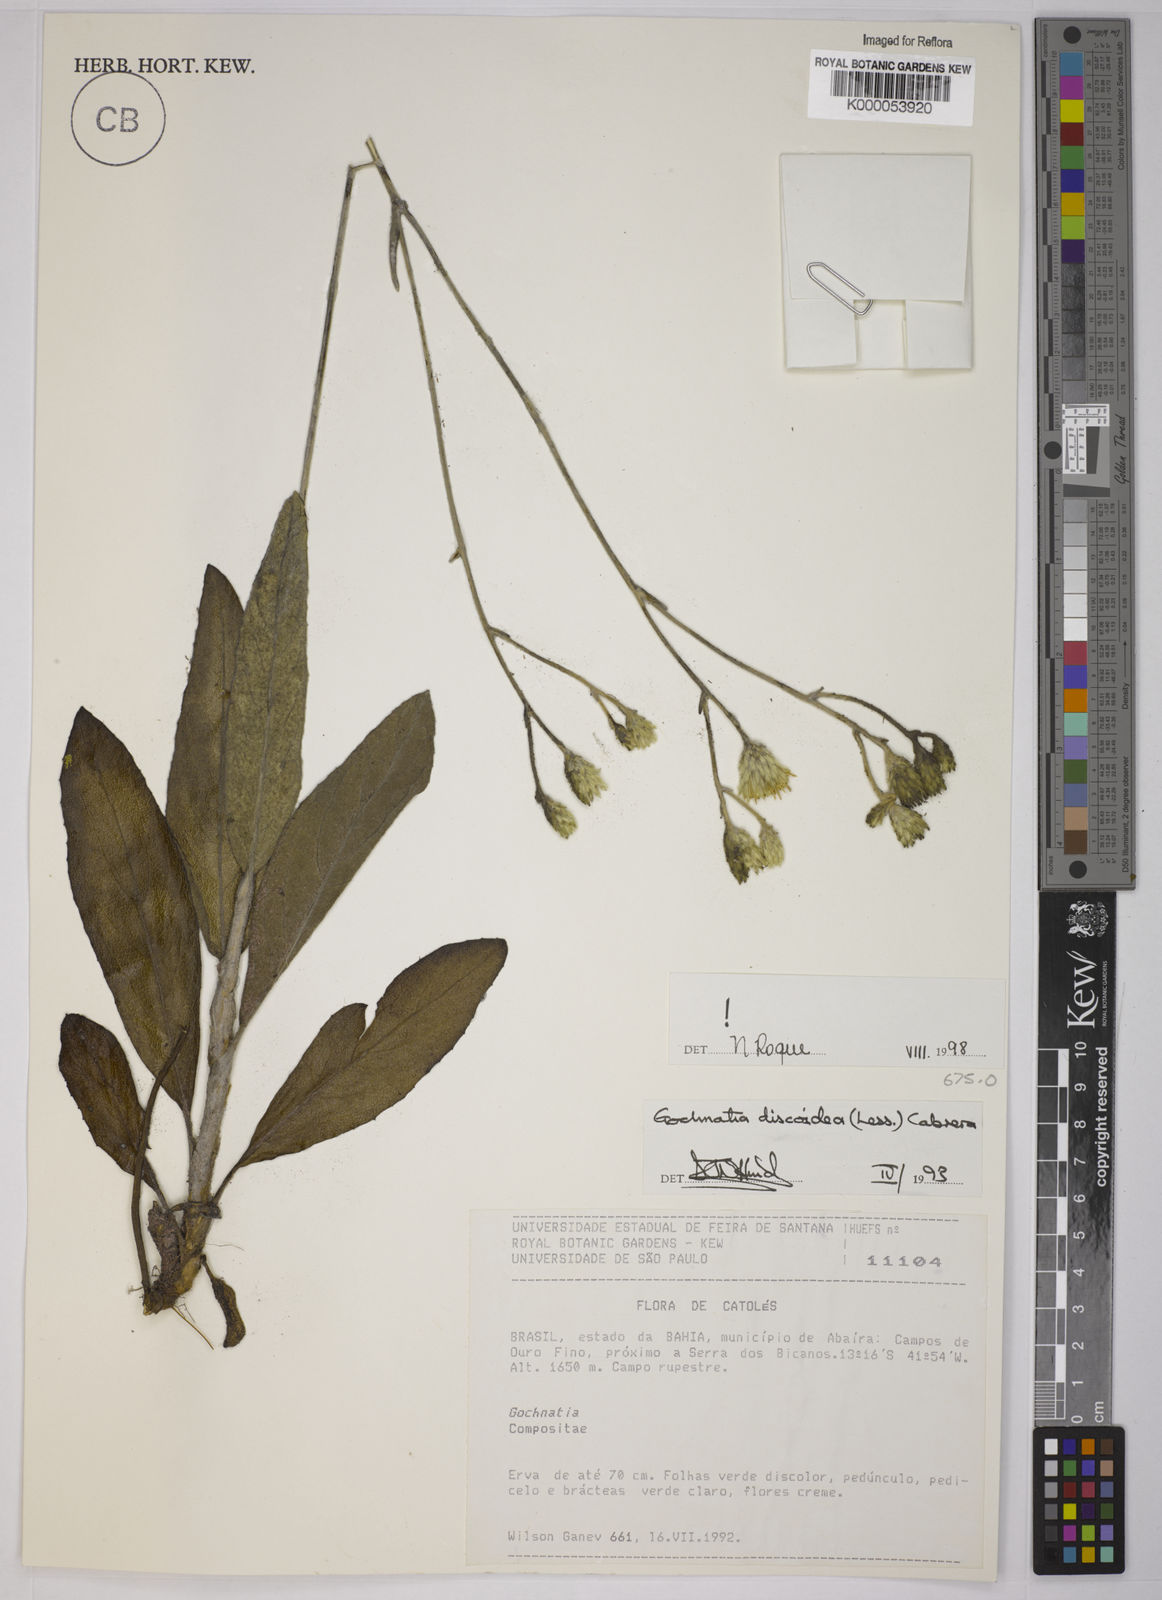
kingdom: Plantae
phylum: Tracheophyta
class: Magnoliopsida
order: Asterales
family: Asteraceae
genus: Richterago
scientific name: Richterago discoidea
